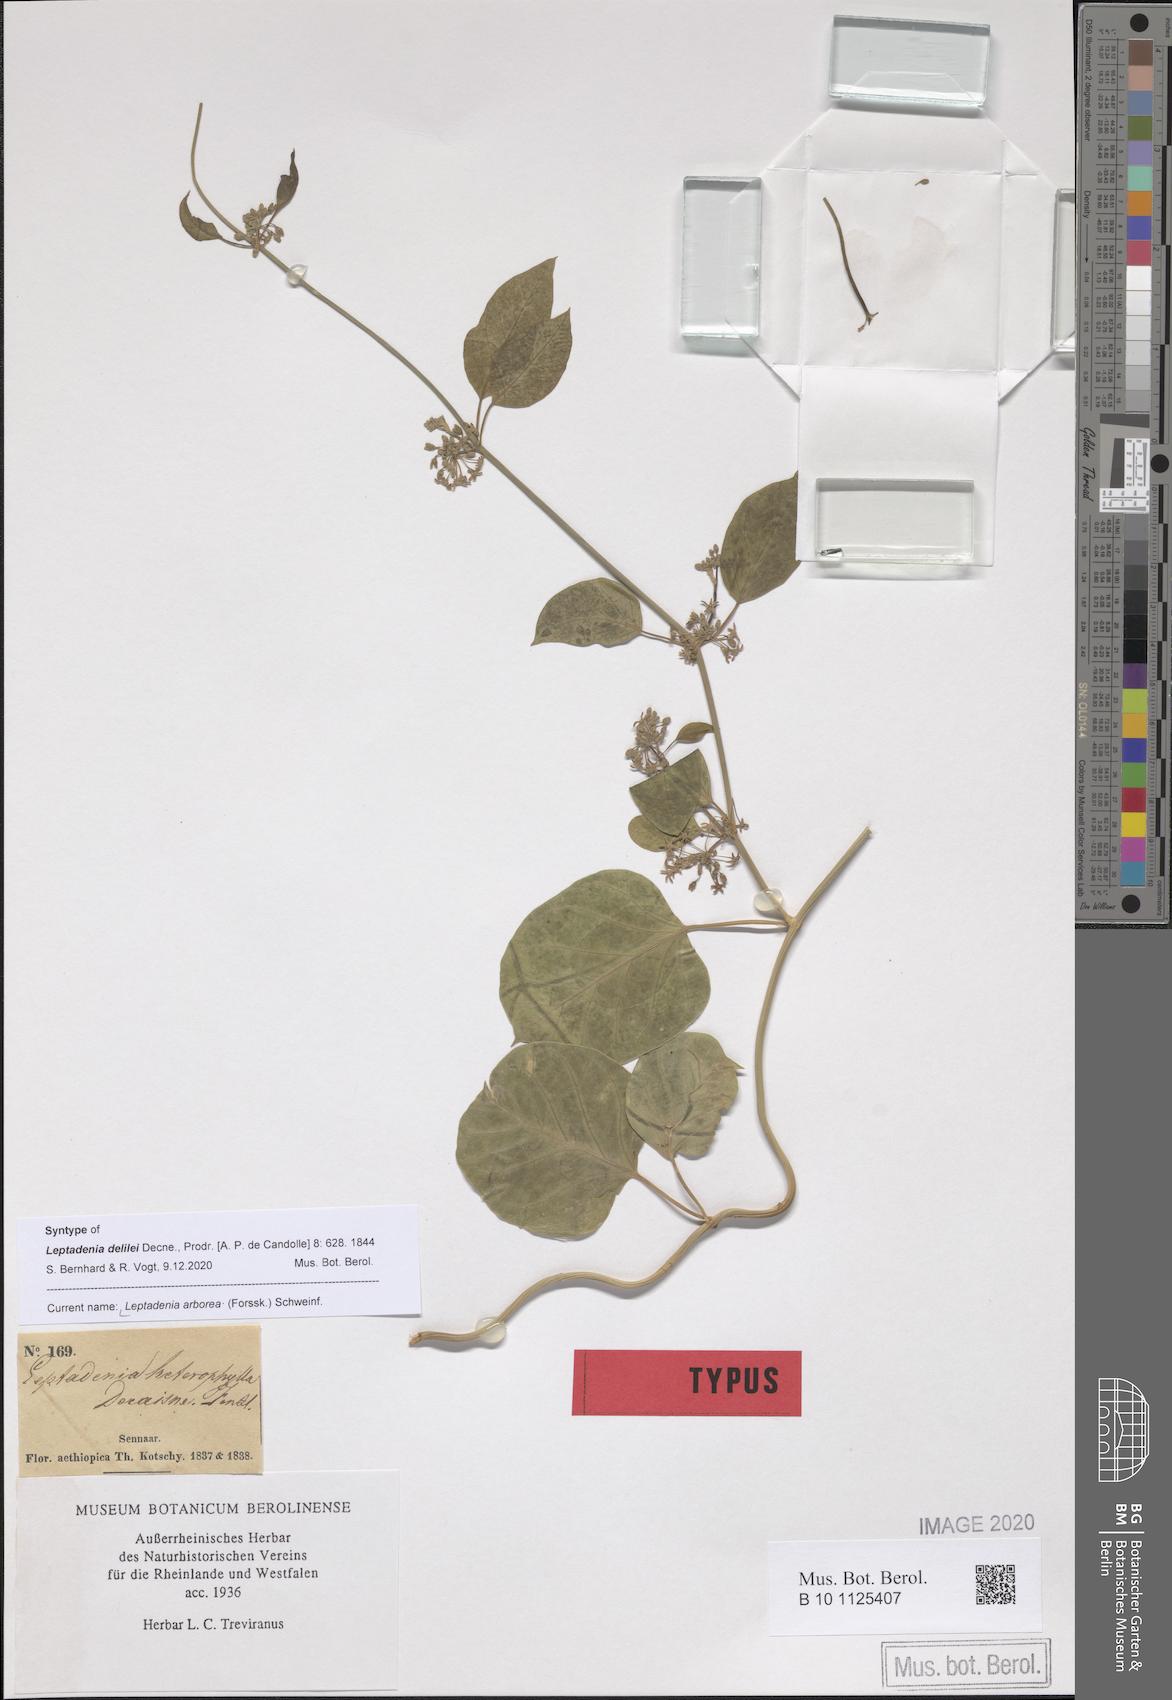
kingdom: Plantae
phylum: Tracheophyta
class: Magnoliopsida
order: Gentianales
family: Apocynaceae
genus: Leptadenia
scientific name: Leptadenia arborea
